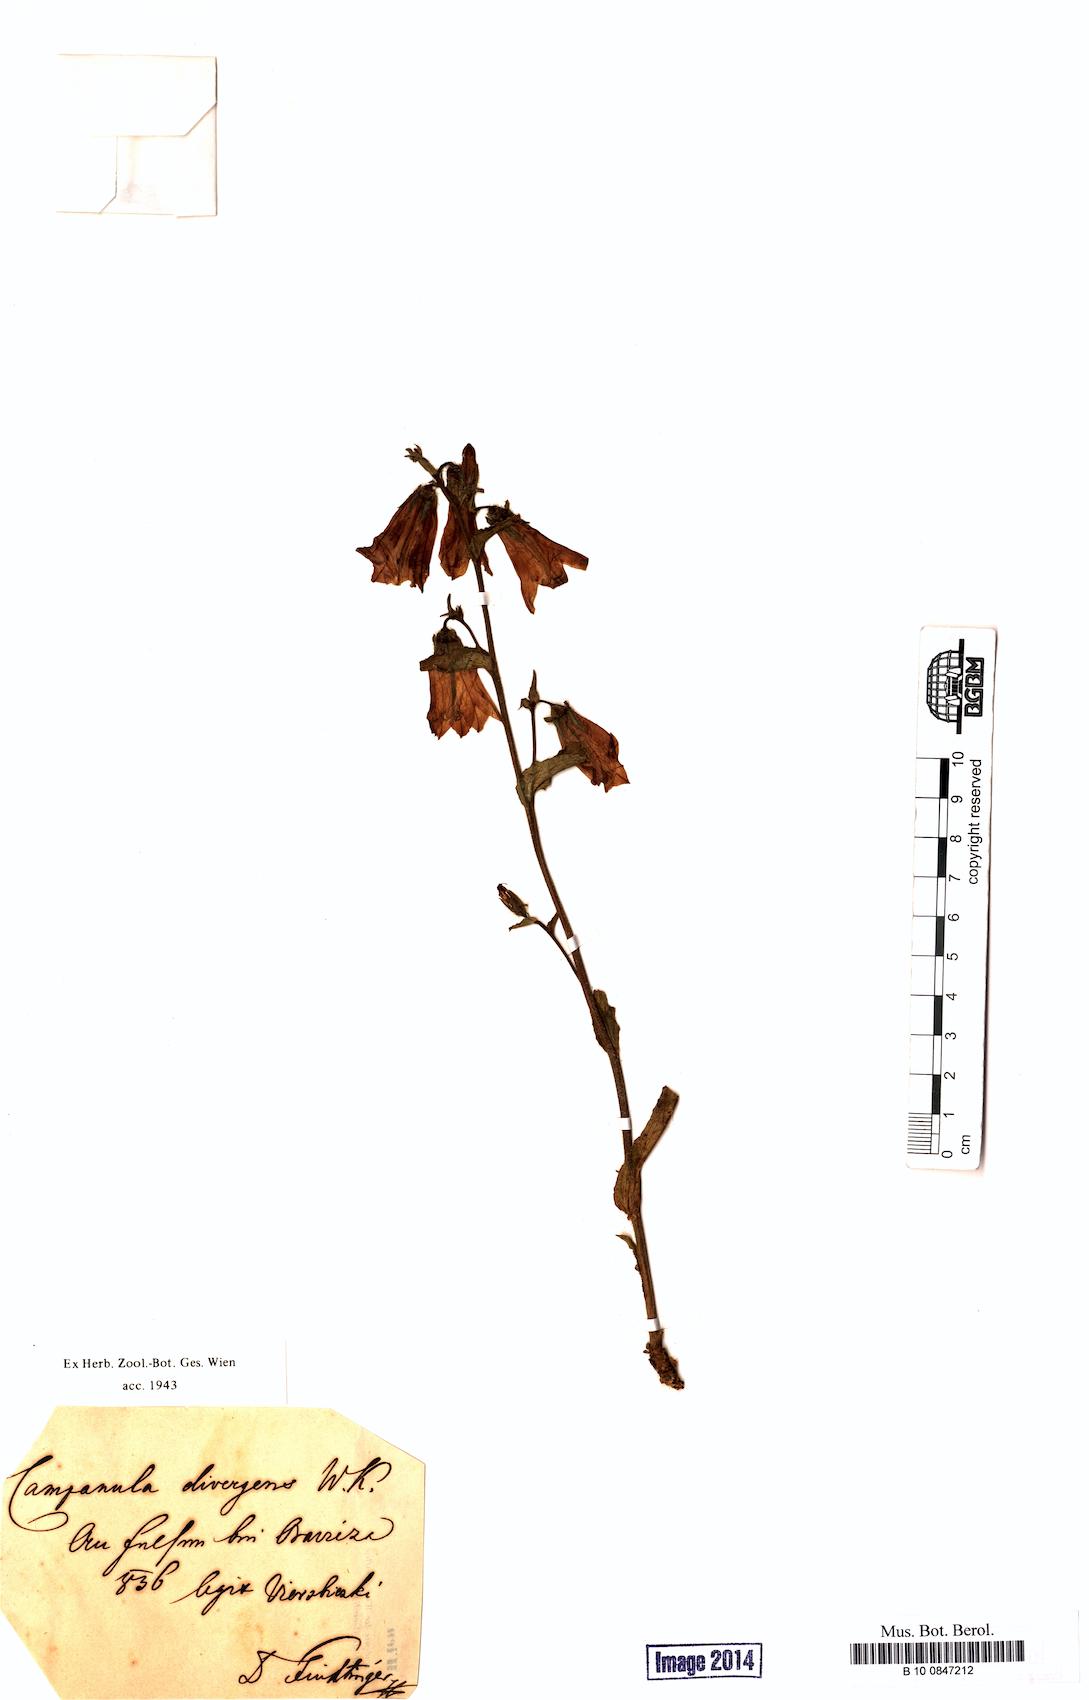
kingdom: Plantae
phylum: Tracheophyta
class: Magnoliopsida
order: Asterales
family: Campanulaceae
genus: Campanula
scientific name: Campanula sibirica
